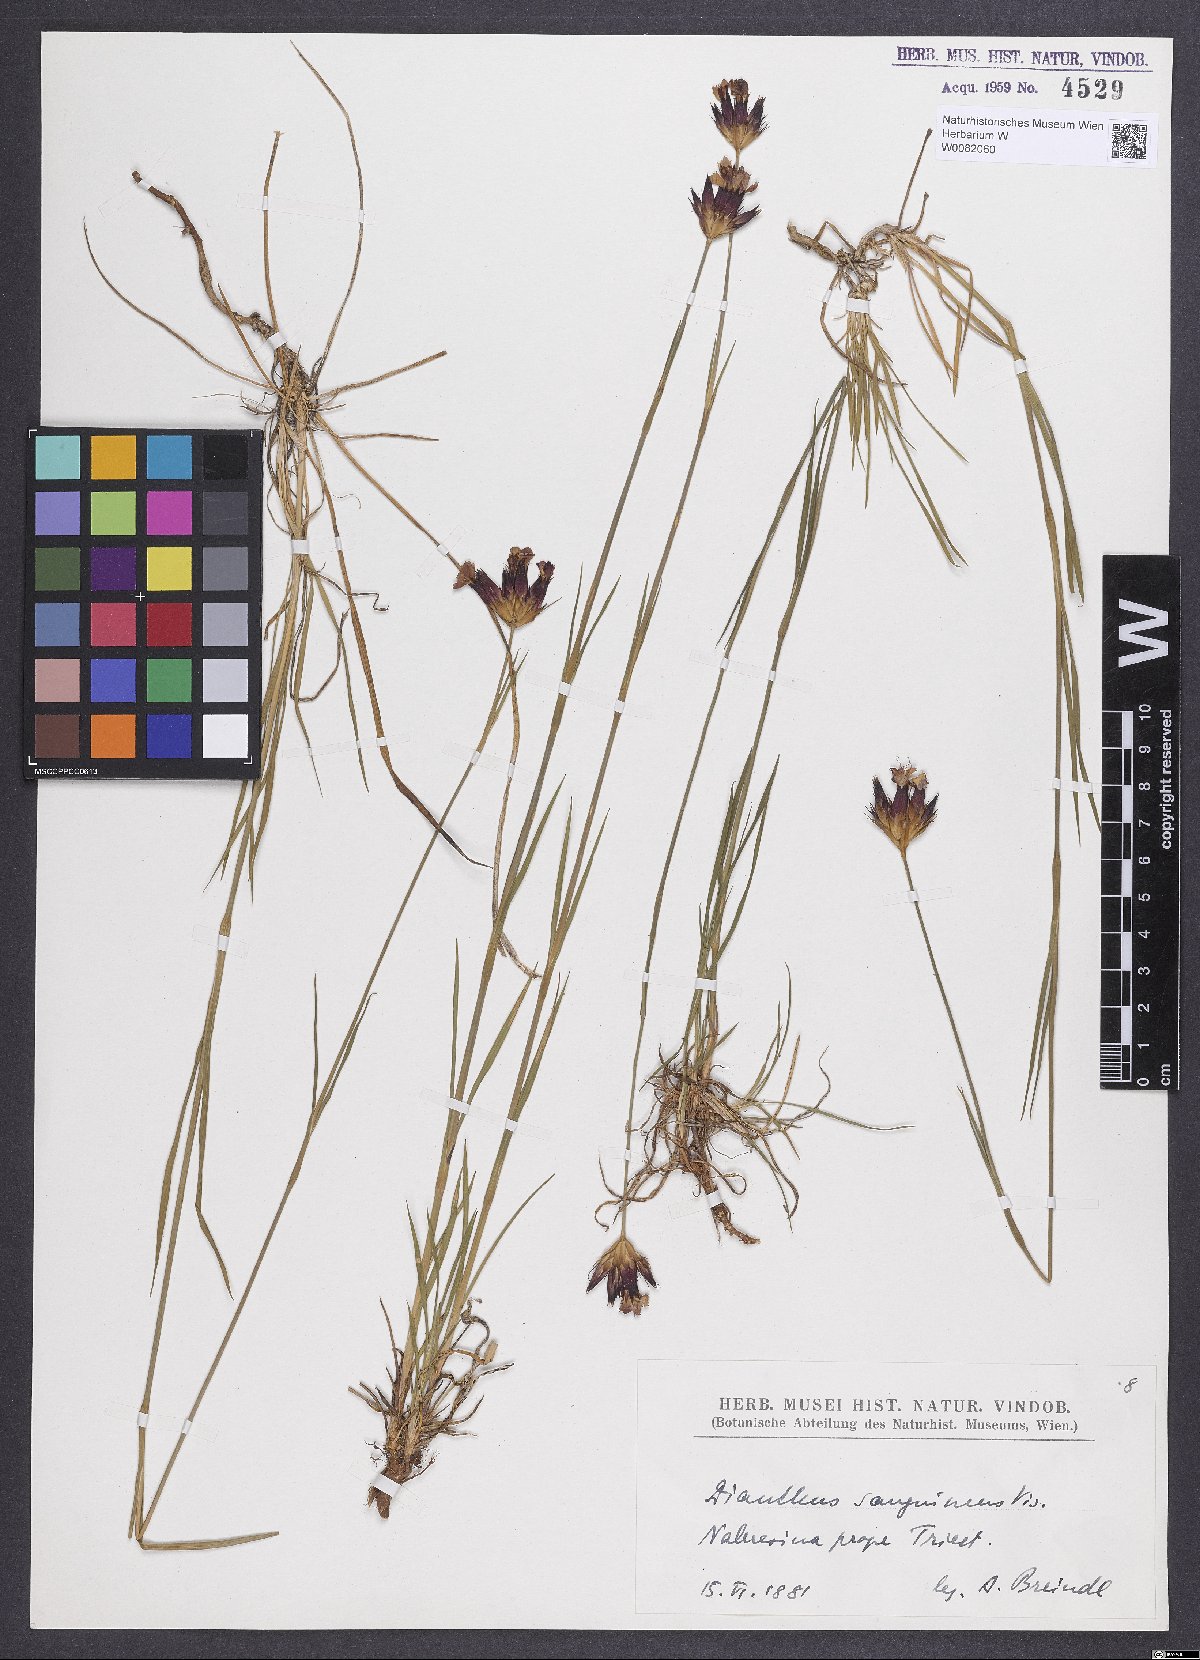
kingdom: Plantae
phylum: Tracheophyta
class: Magnoliopsida
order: Caryophyllales
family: Caryophyllaceae
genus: Dianthus
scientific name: Dianthus carthusianorum
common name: Carthusian pink
